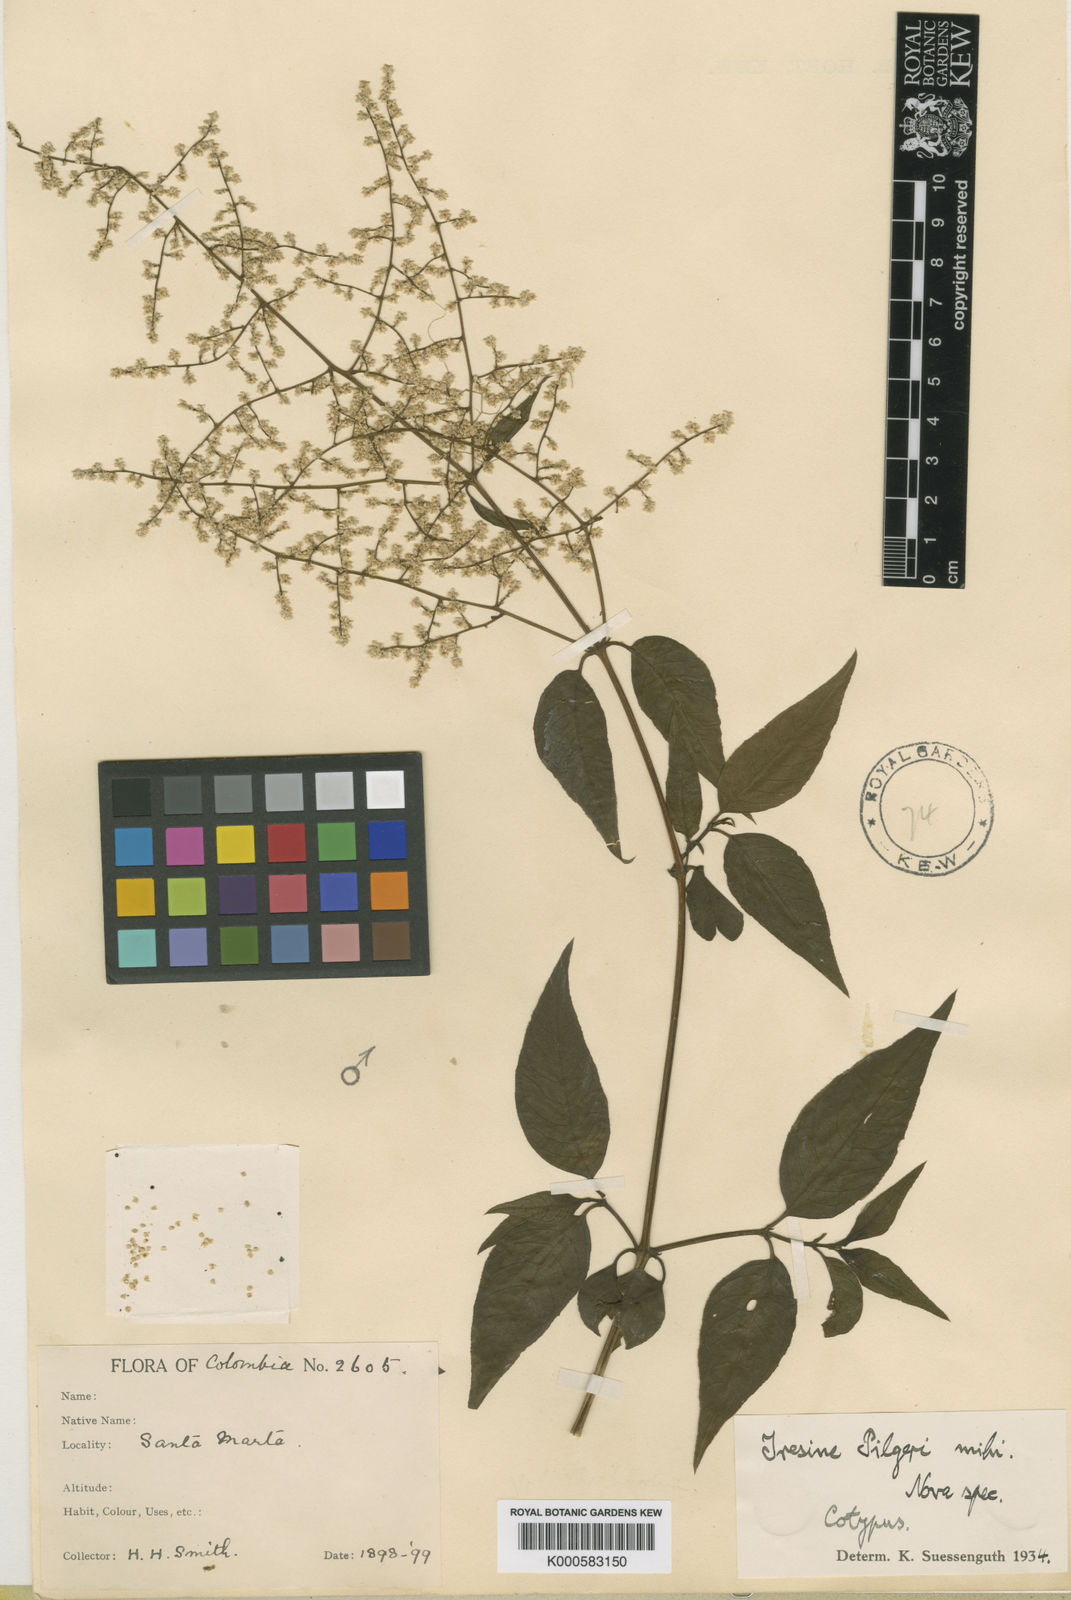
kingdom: Plantae
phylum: Tracheophyta
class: Magnoliopsida
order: Caryophyllales
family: Amaranthaceae
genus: Iresine
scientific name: Iresine diffusa
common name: Juba's-bush
